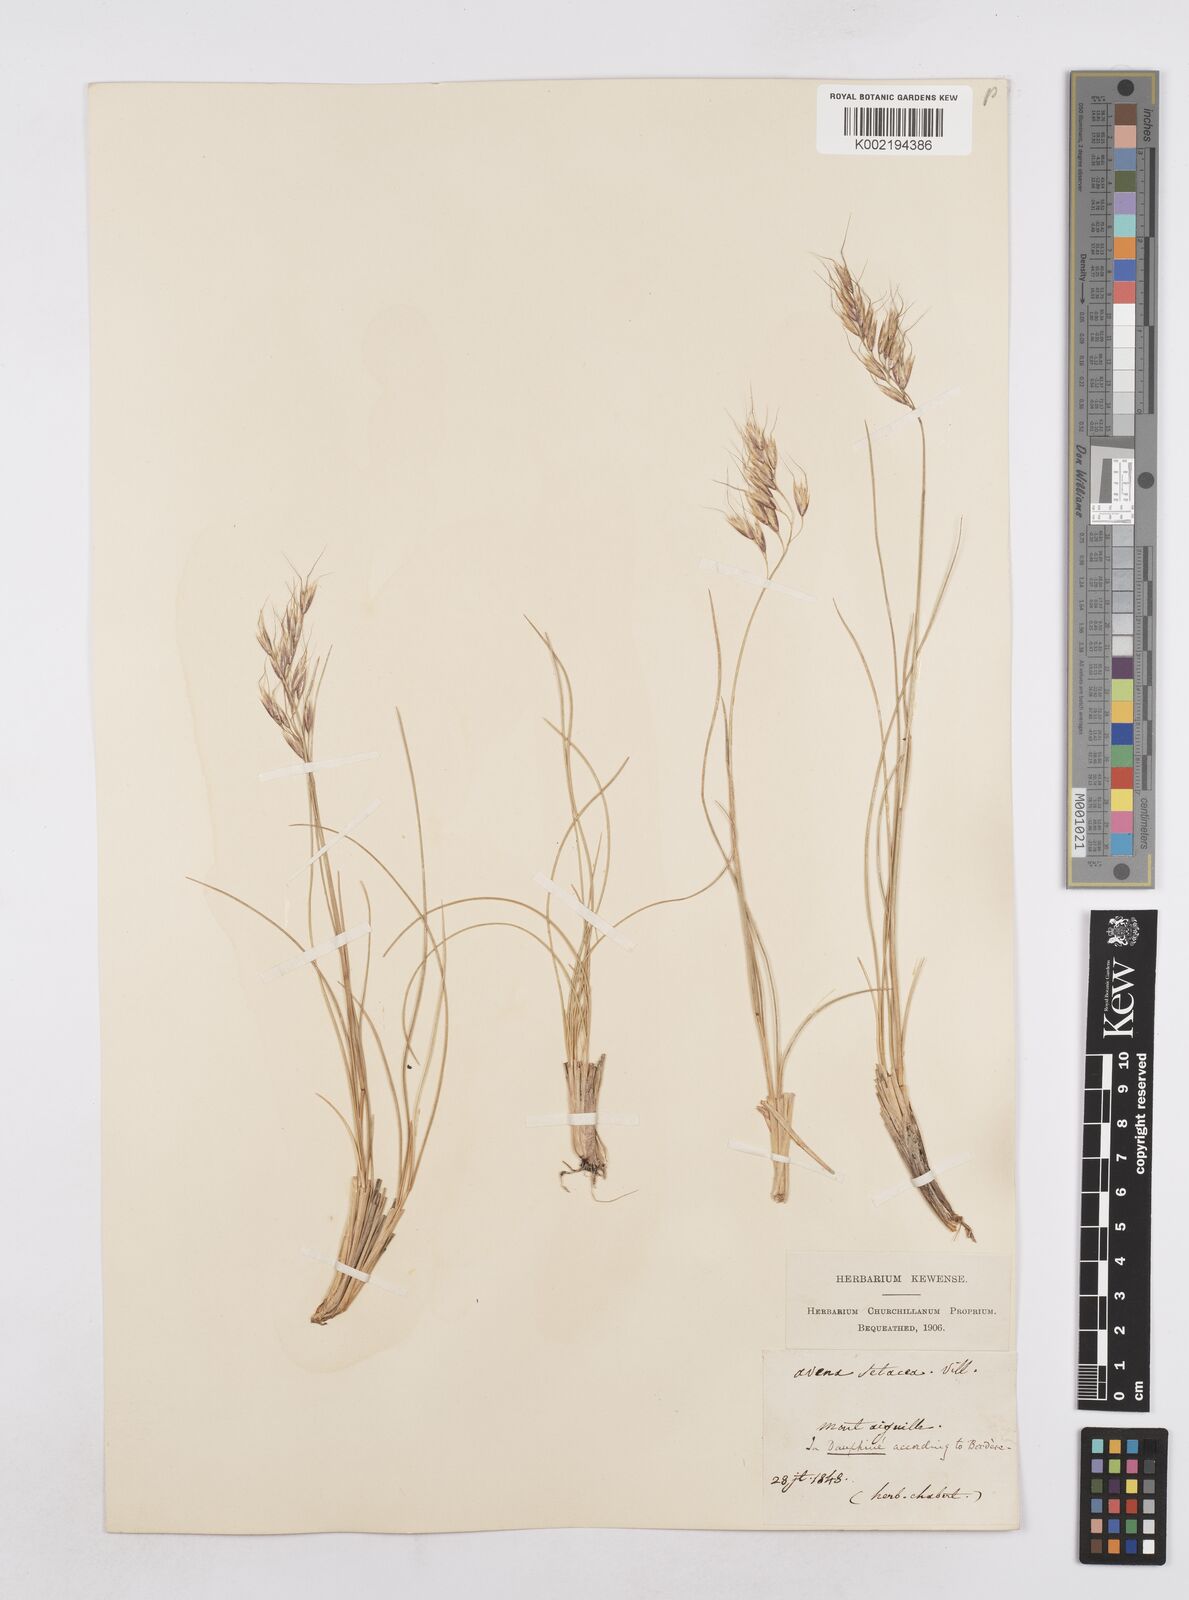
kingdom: Plantae
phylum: Tracheophyta
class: Liliopsida
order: Poales
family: Poaceae
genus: Helictotrichon
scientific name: Helictotrichon setaceum
